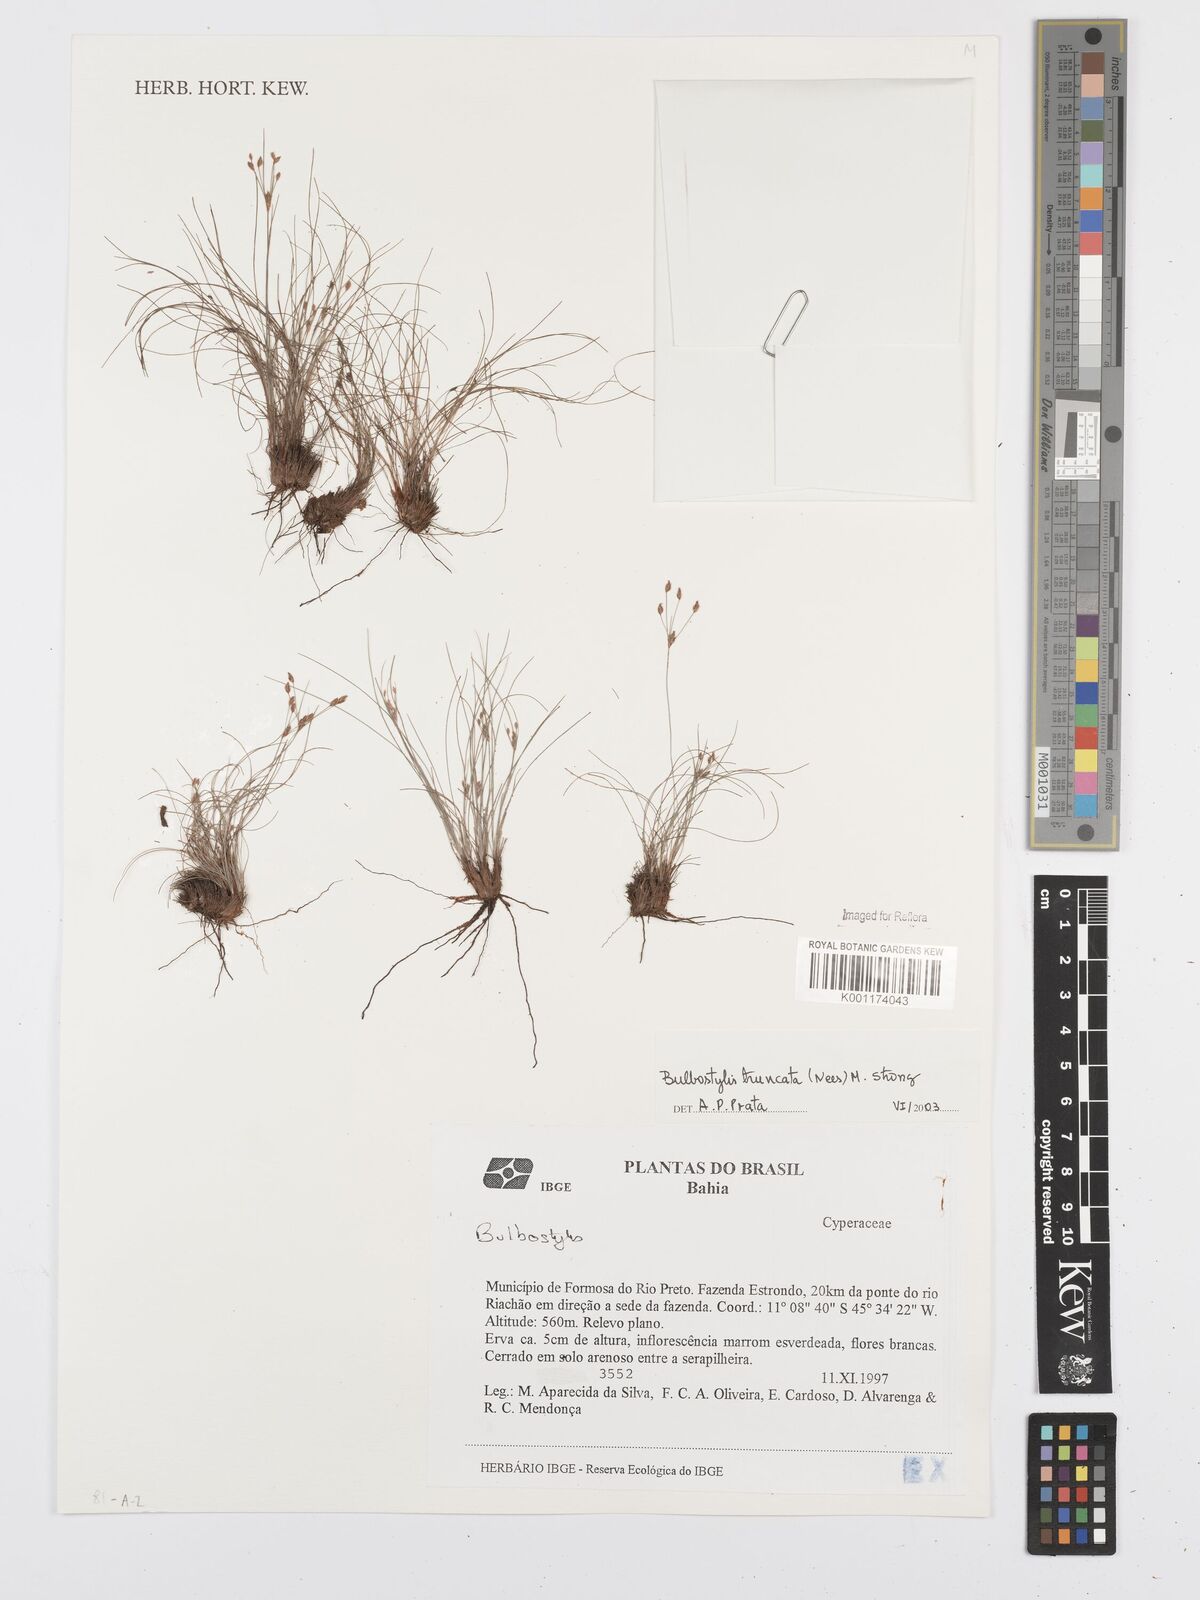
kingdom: Plantae
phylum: Tracheophyta
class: Liliopsida
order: Poales
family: Cyperaceae
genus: Bulbostylis
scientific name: Bulbostylis truncata
